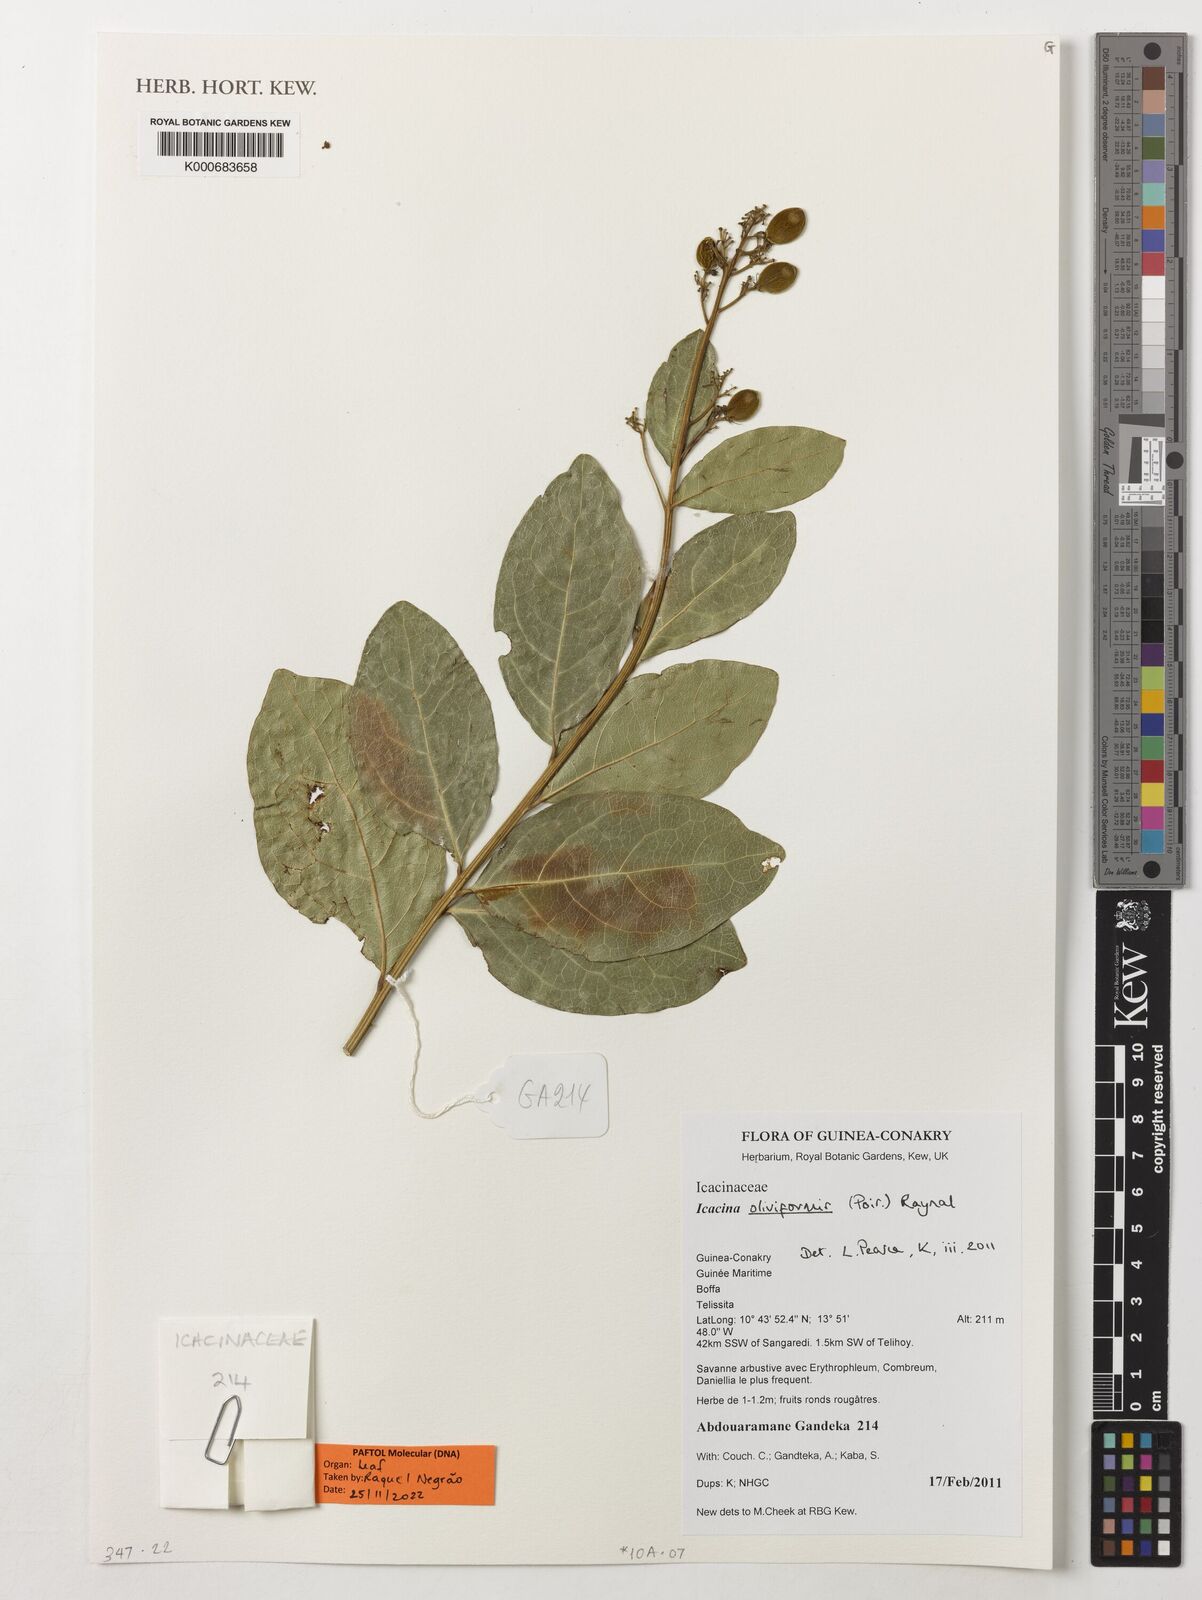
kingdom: Plantae
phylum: Tracheophyta
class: Magnoliopsida
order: Icacinales
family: Icacinaceae
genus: Icacina
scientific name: Icacina oliviformis
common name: False yam
